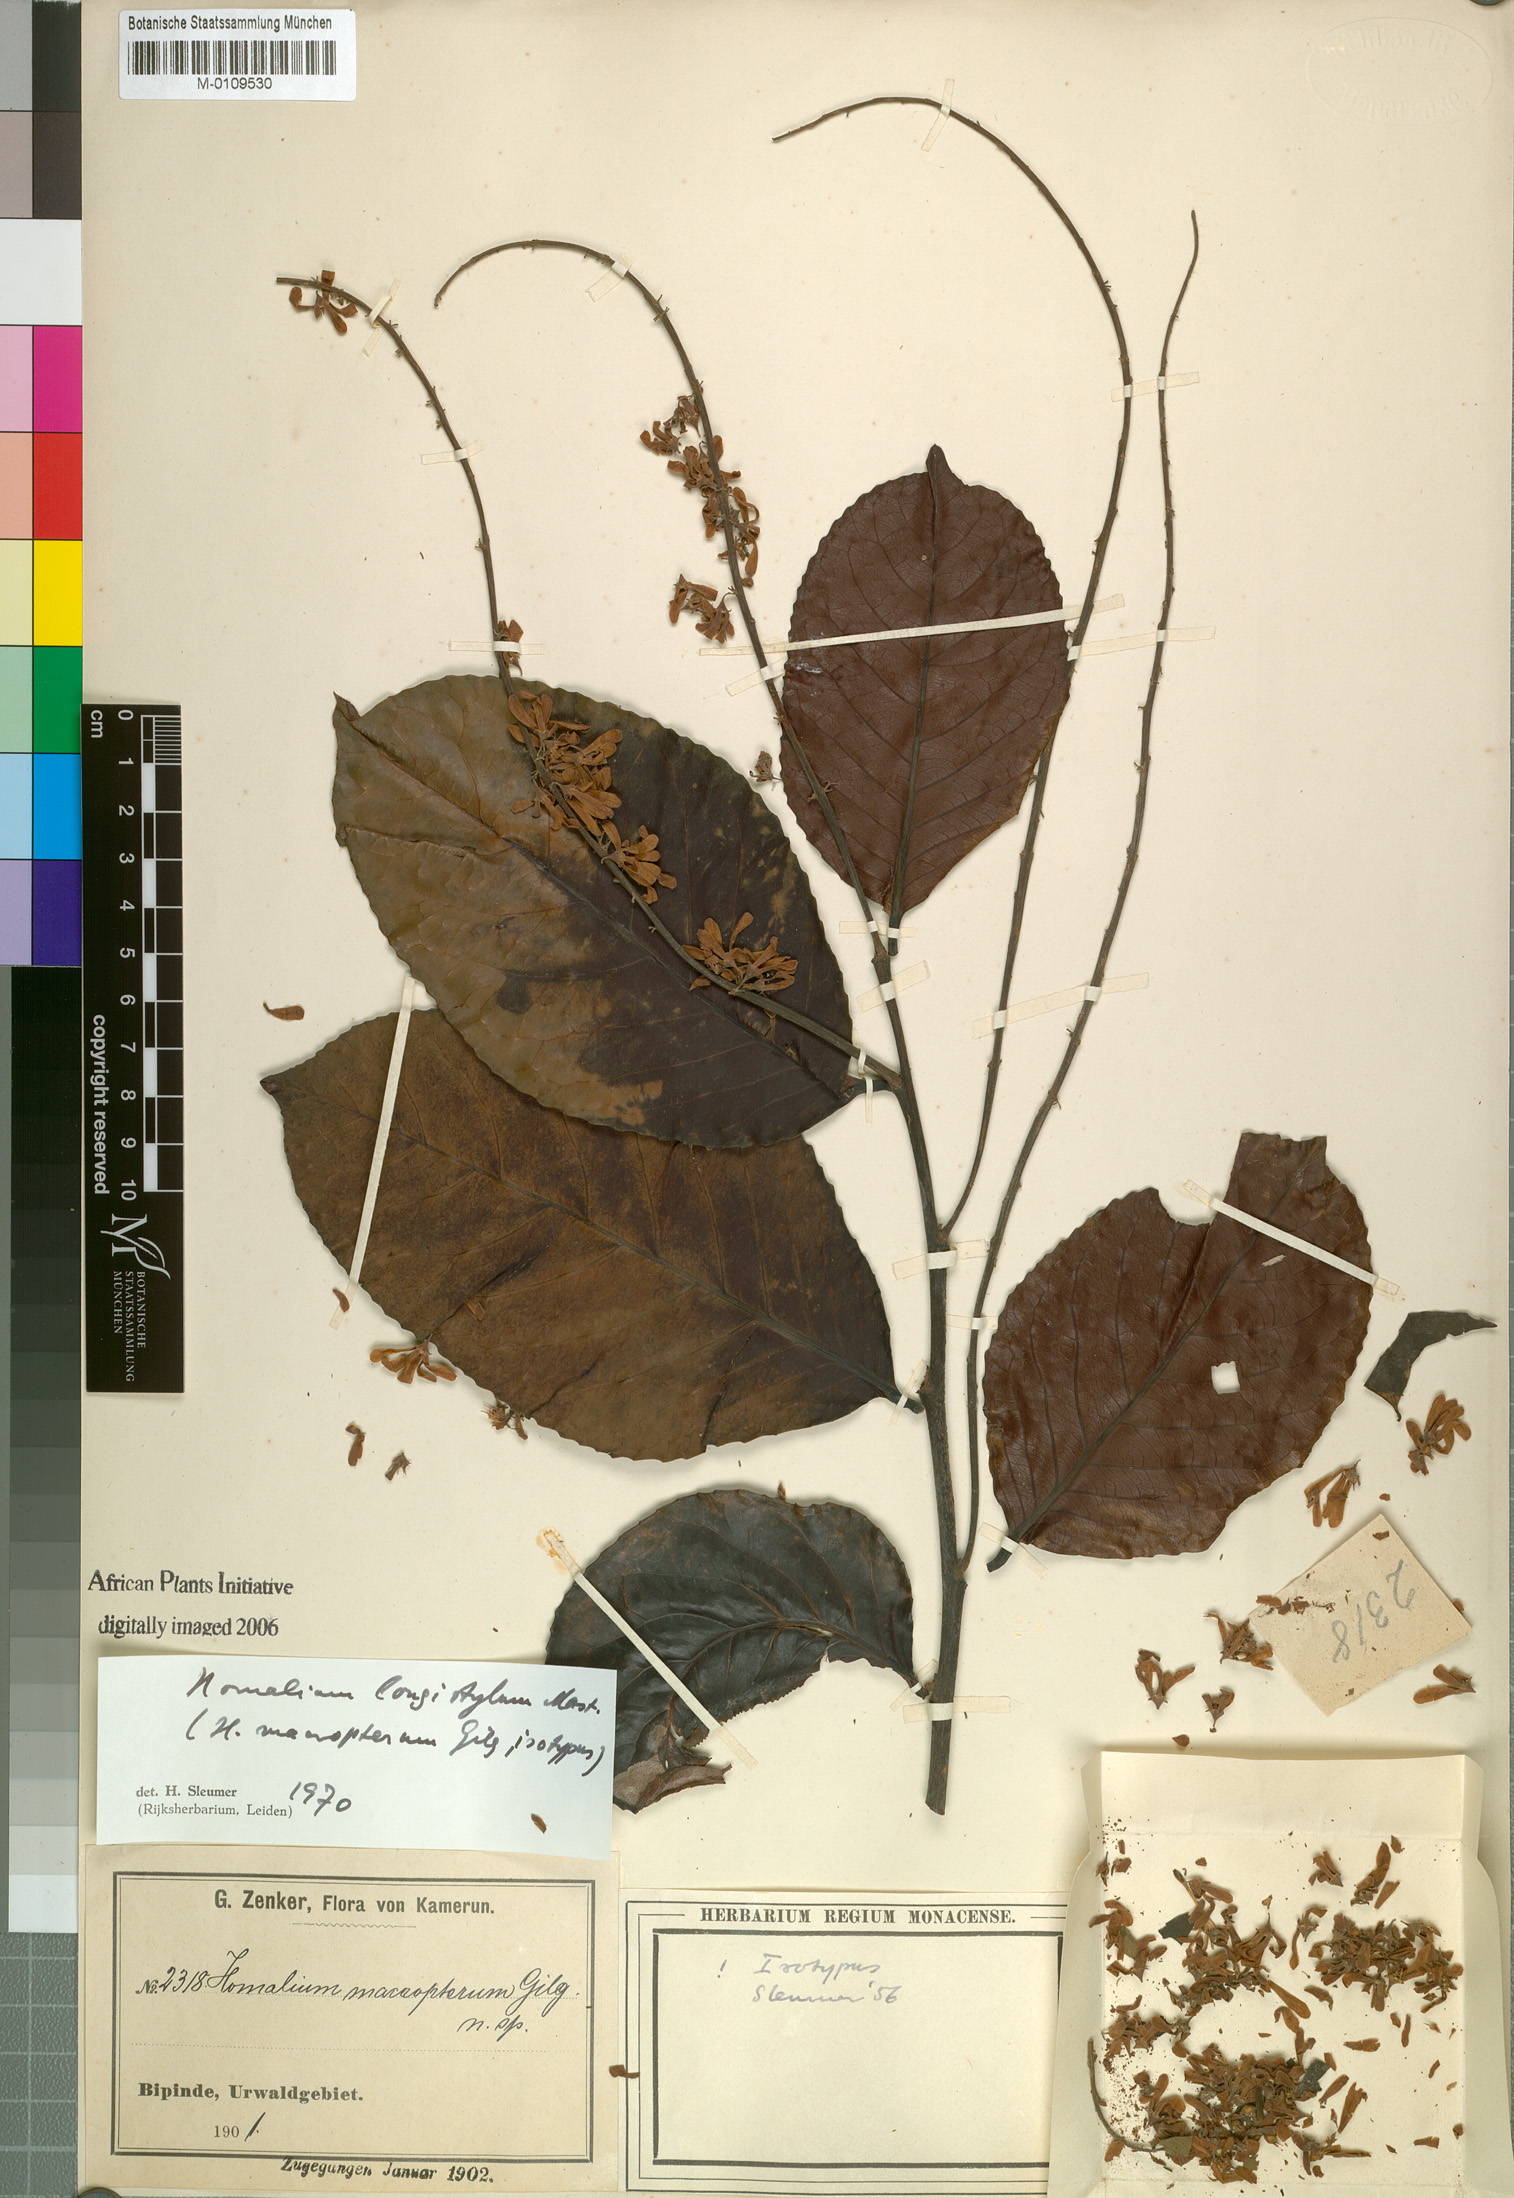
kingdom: Plantae
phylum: Tracheophyta
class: Magnoliopsida
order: Malpighiales
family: Salicaceae
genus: Homalium
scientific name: Homalium longistylum
